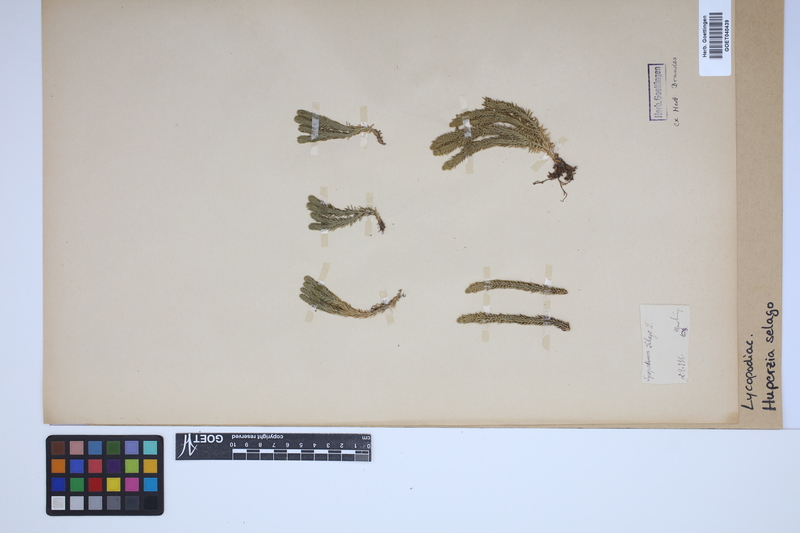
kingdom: Plantae
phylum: Tracheophyta
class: Lycopodiopsida
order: Lycopodiales
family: Lycopodiaceae
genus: Huperzia
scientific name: Huperzia selago
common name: Northern firmoss
